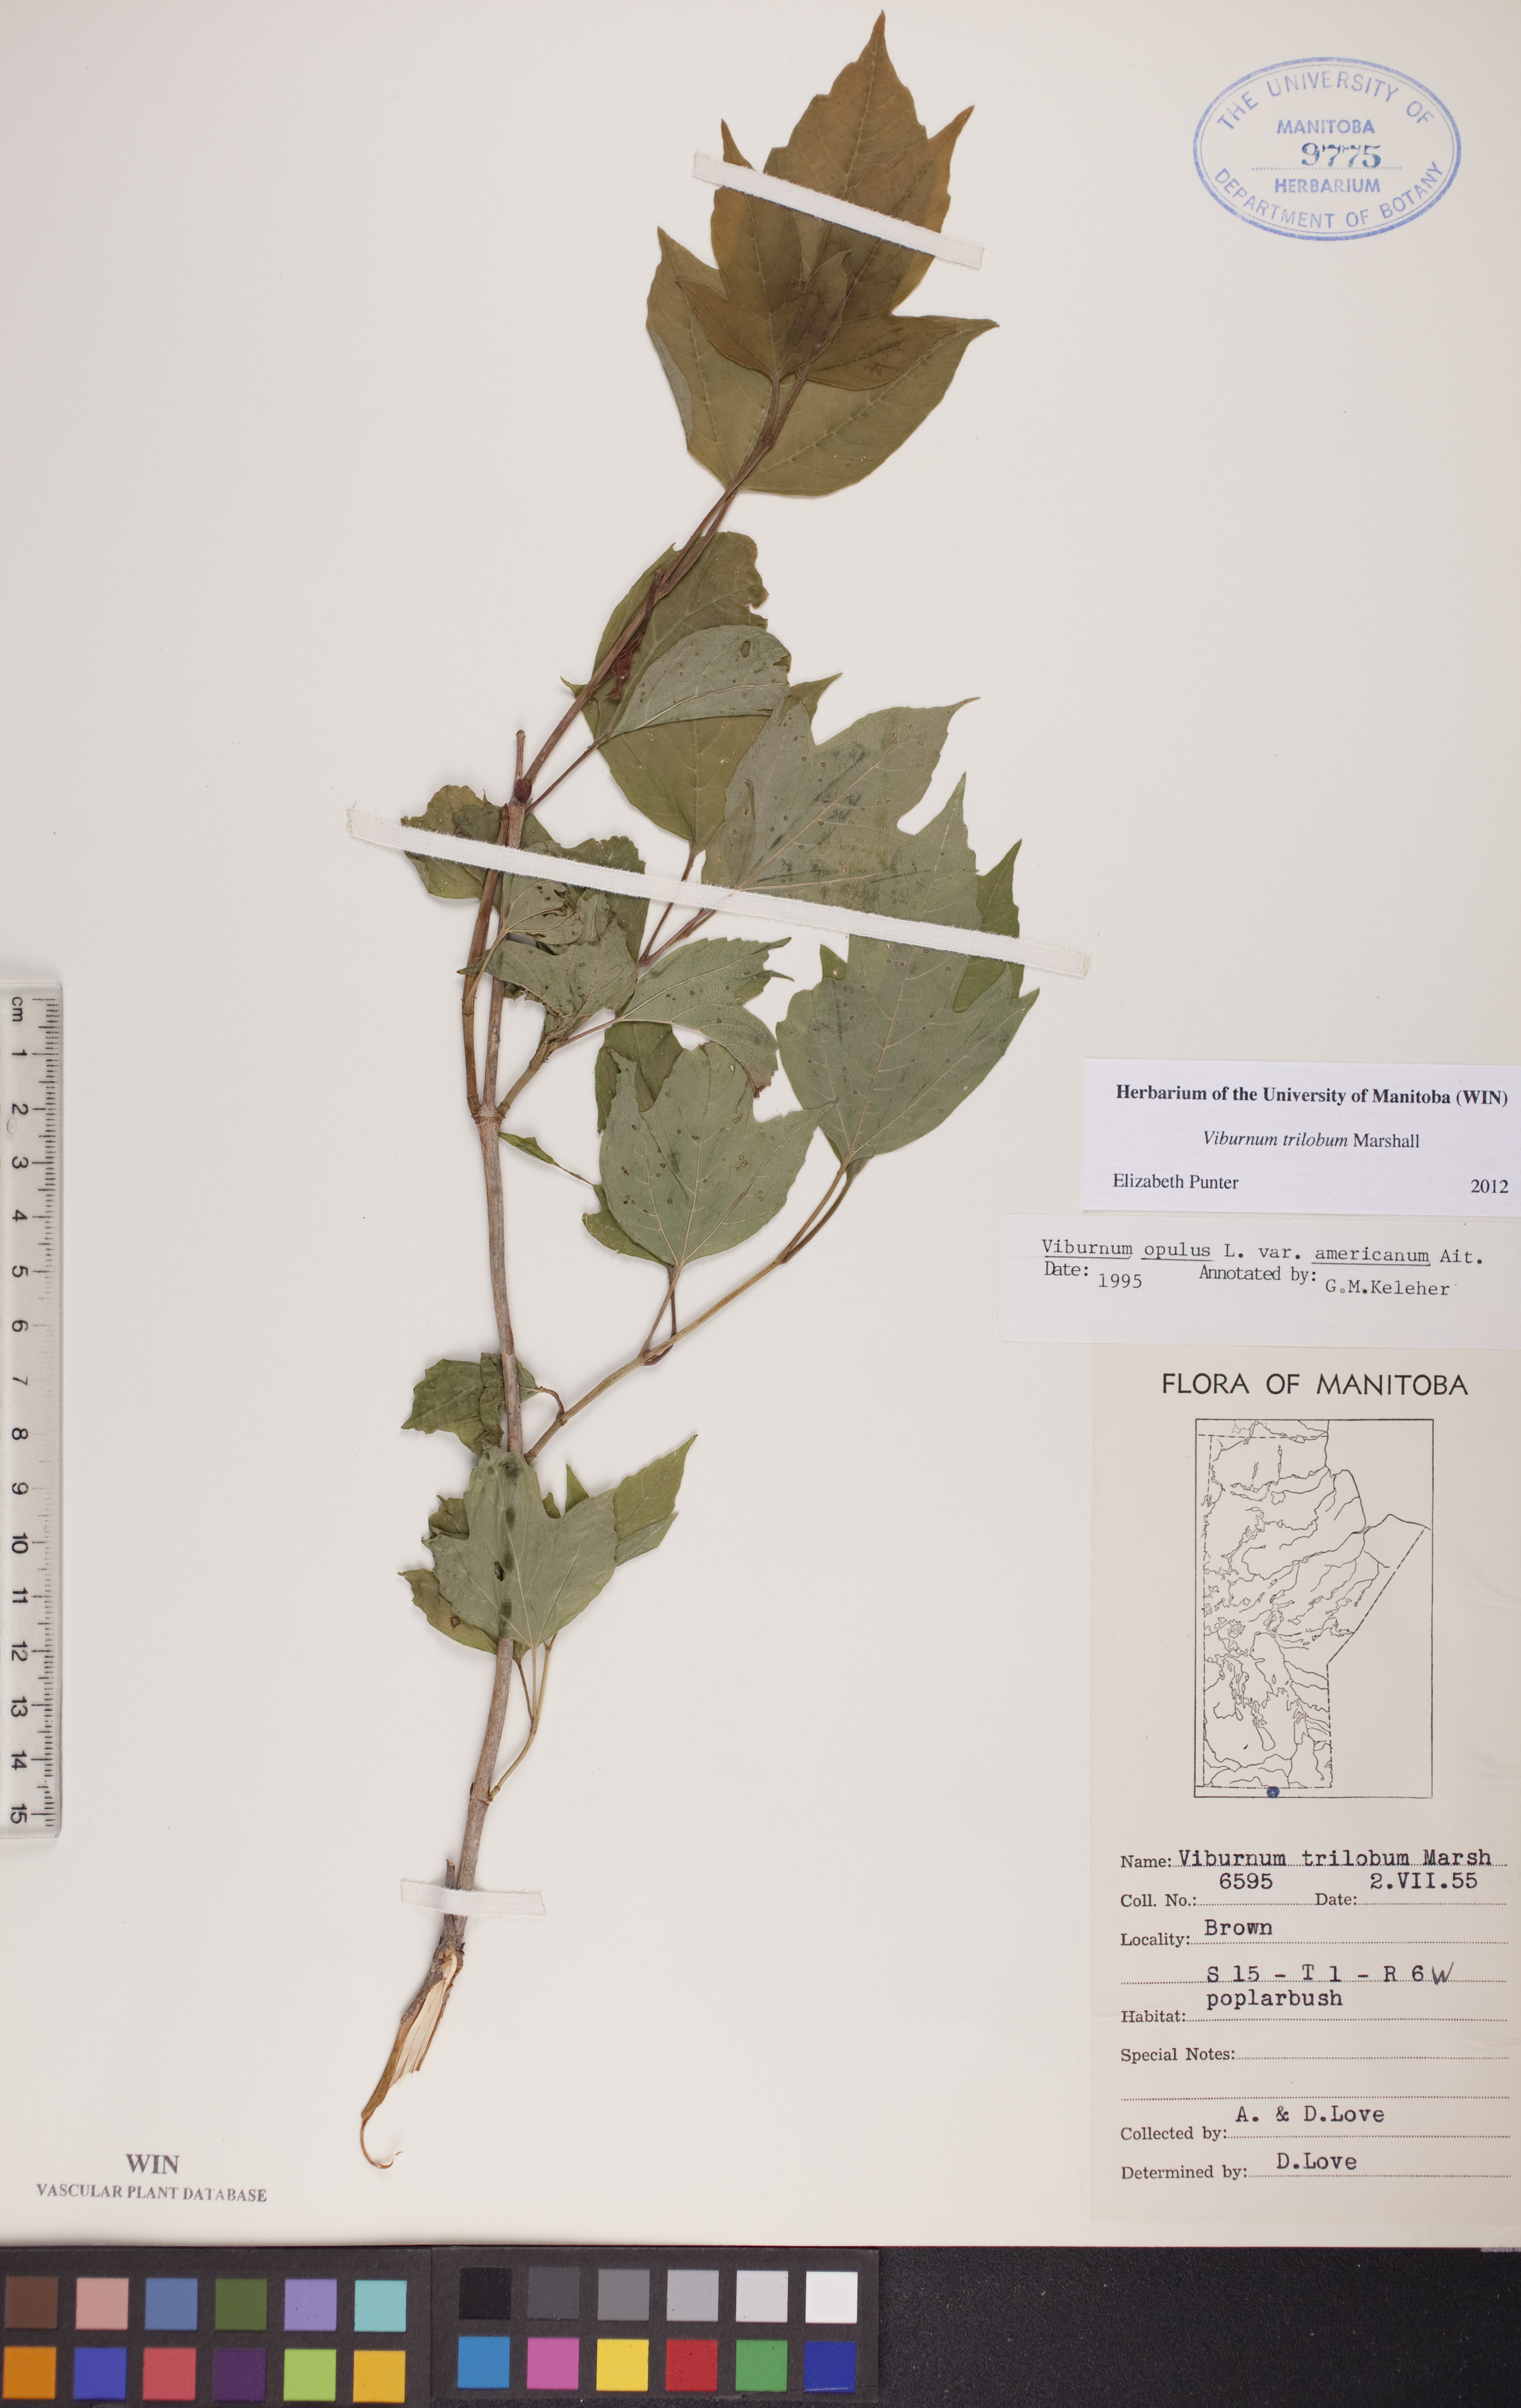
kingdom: Plantae
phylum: Tracheophyta
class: Magnoliopsida
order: Dipsacales
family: Viburnaceae
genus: Viburnum
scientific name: Viburnum trilobum
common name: American cranberrybush
